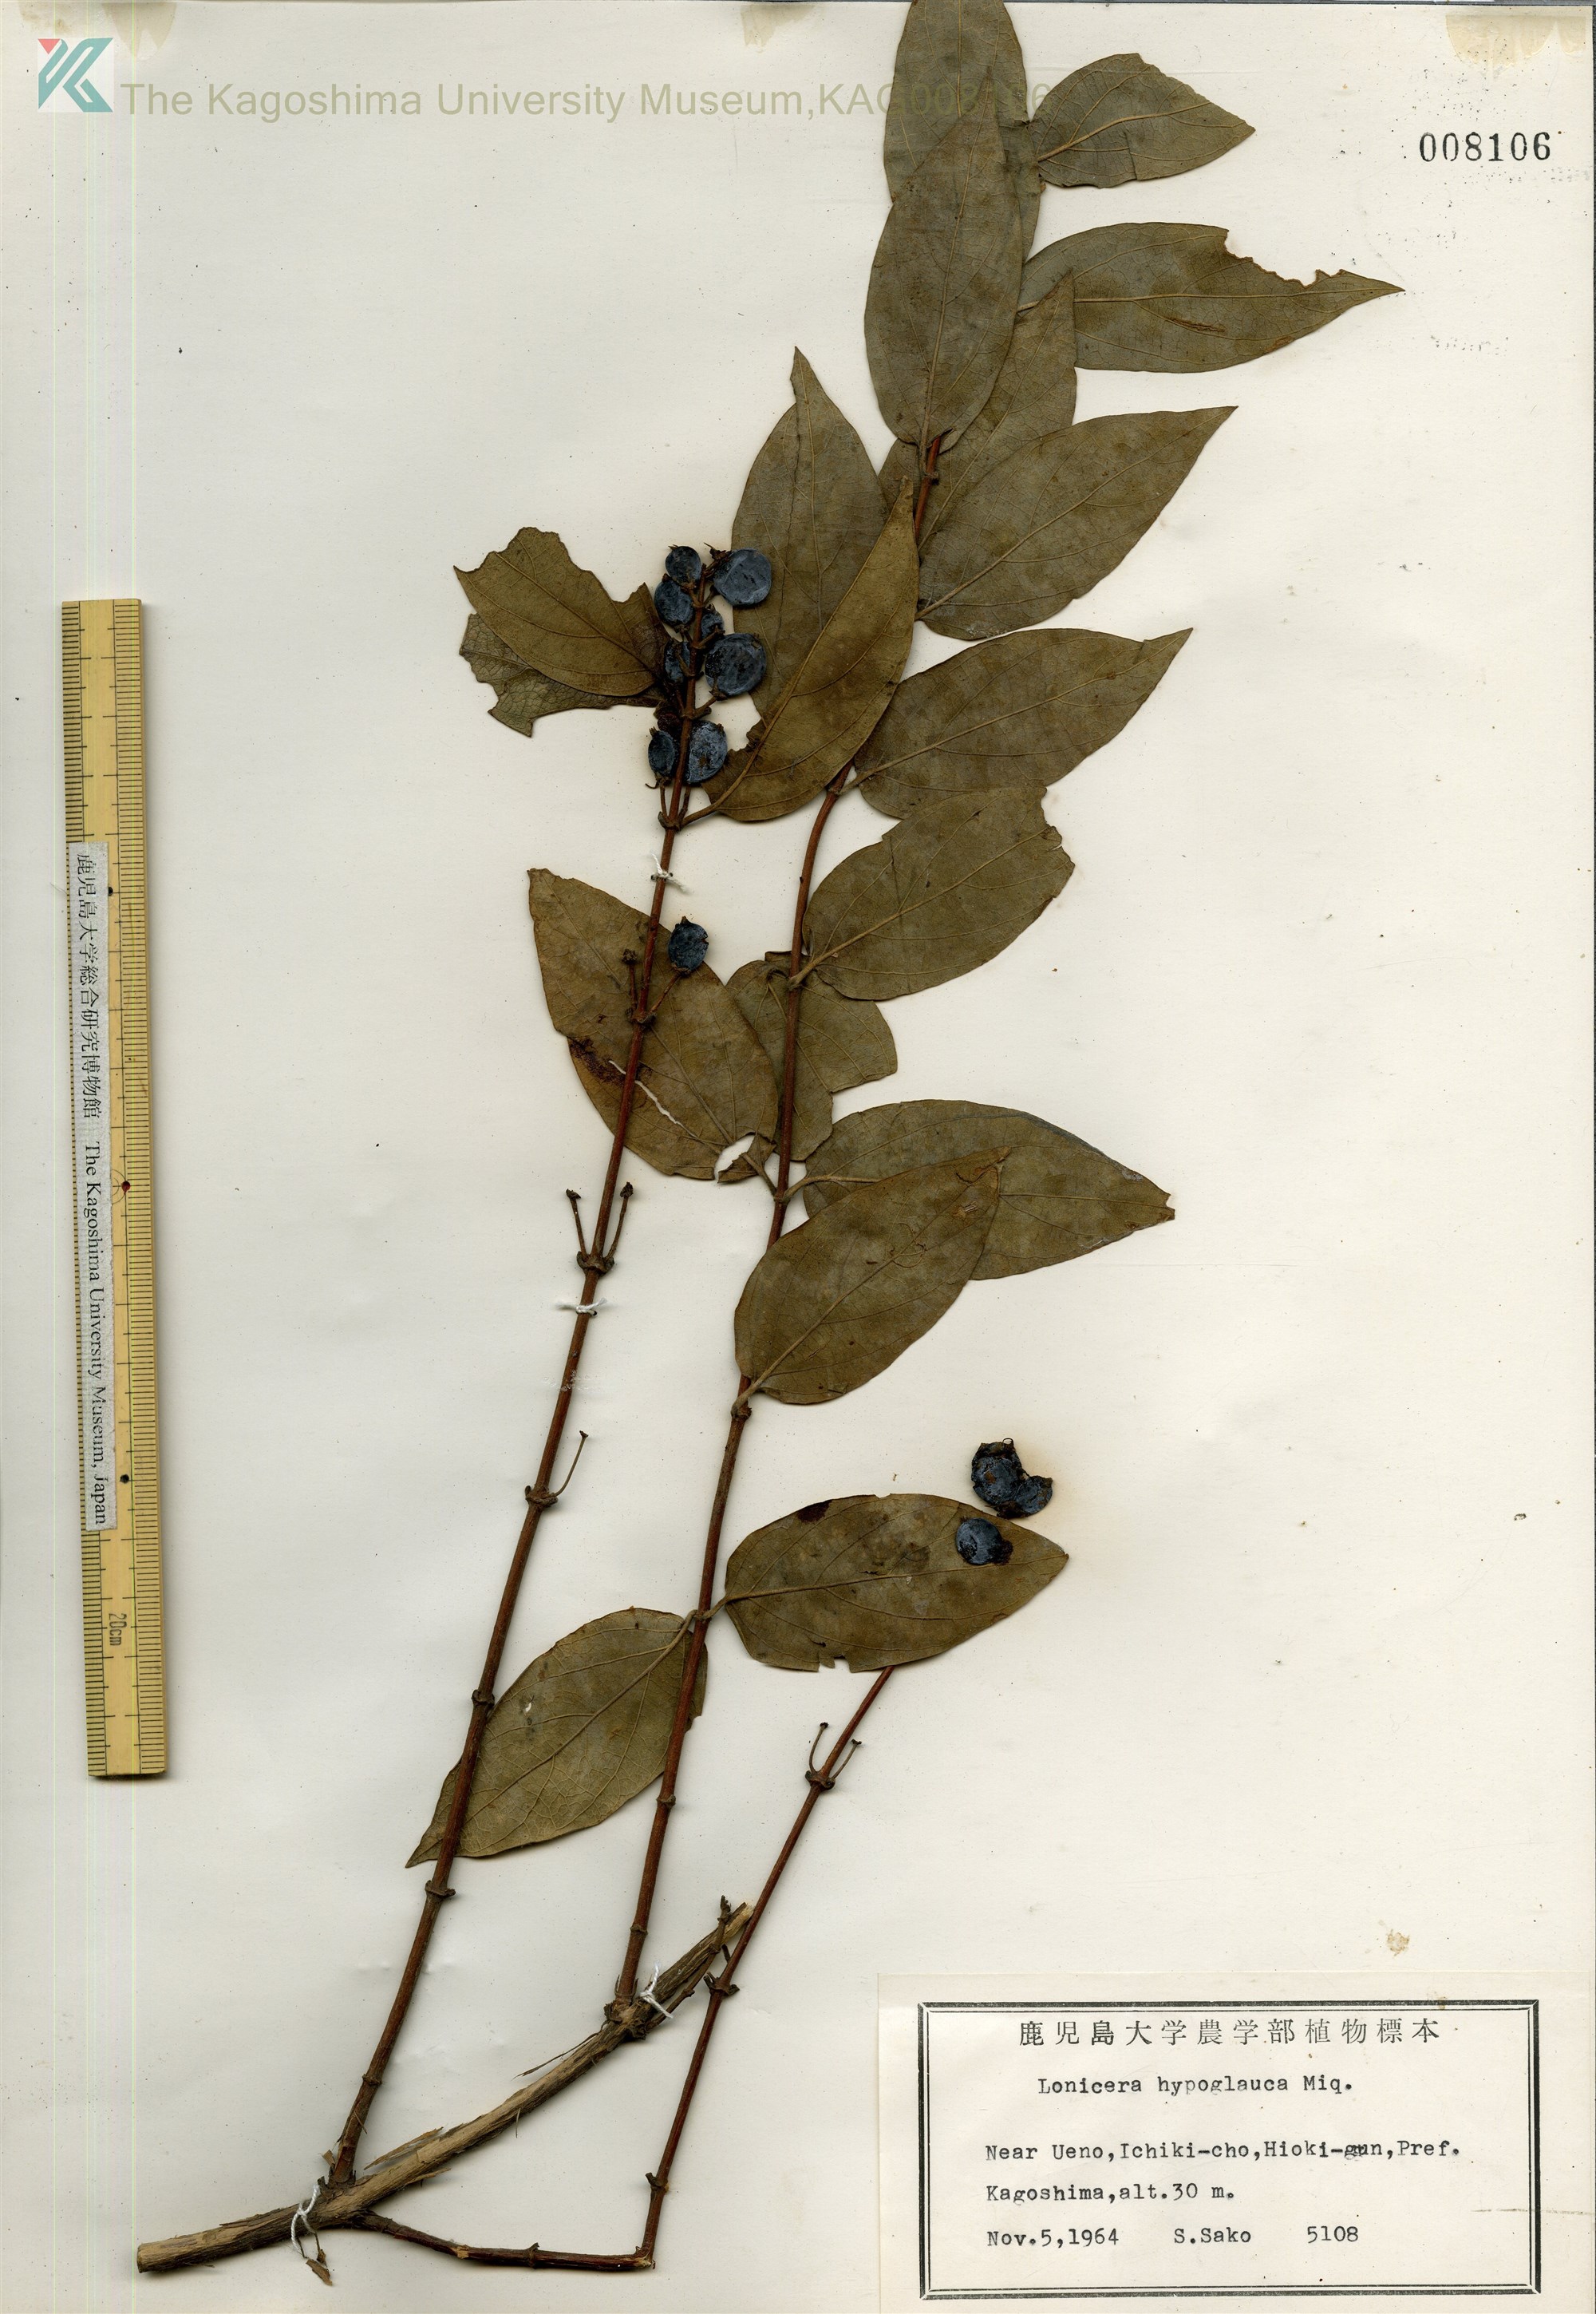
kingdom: Plantae
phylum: Tracheophyta
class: Magnoliopsida
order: Dipsacales
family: Caprifoliaceae
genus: Lonicera
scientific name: Lonicera hypoglauca
